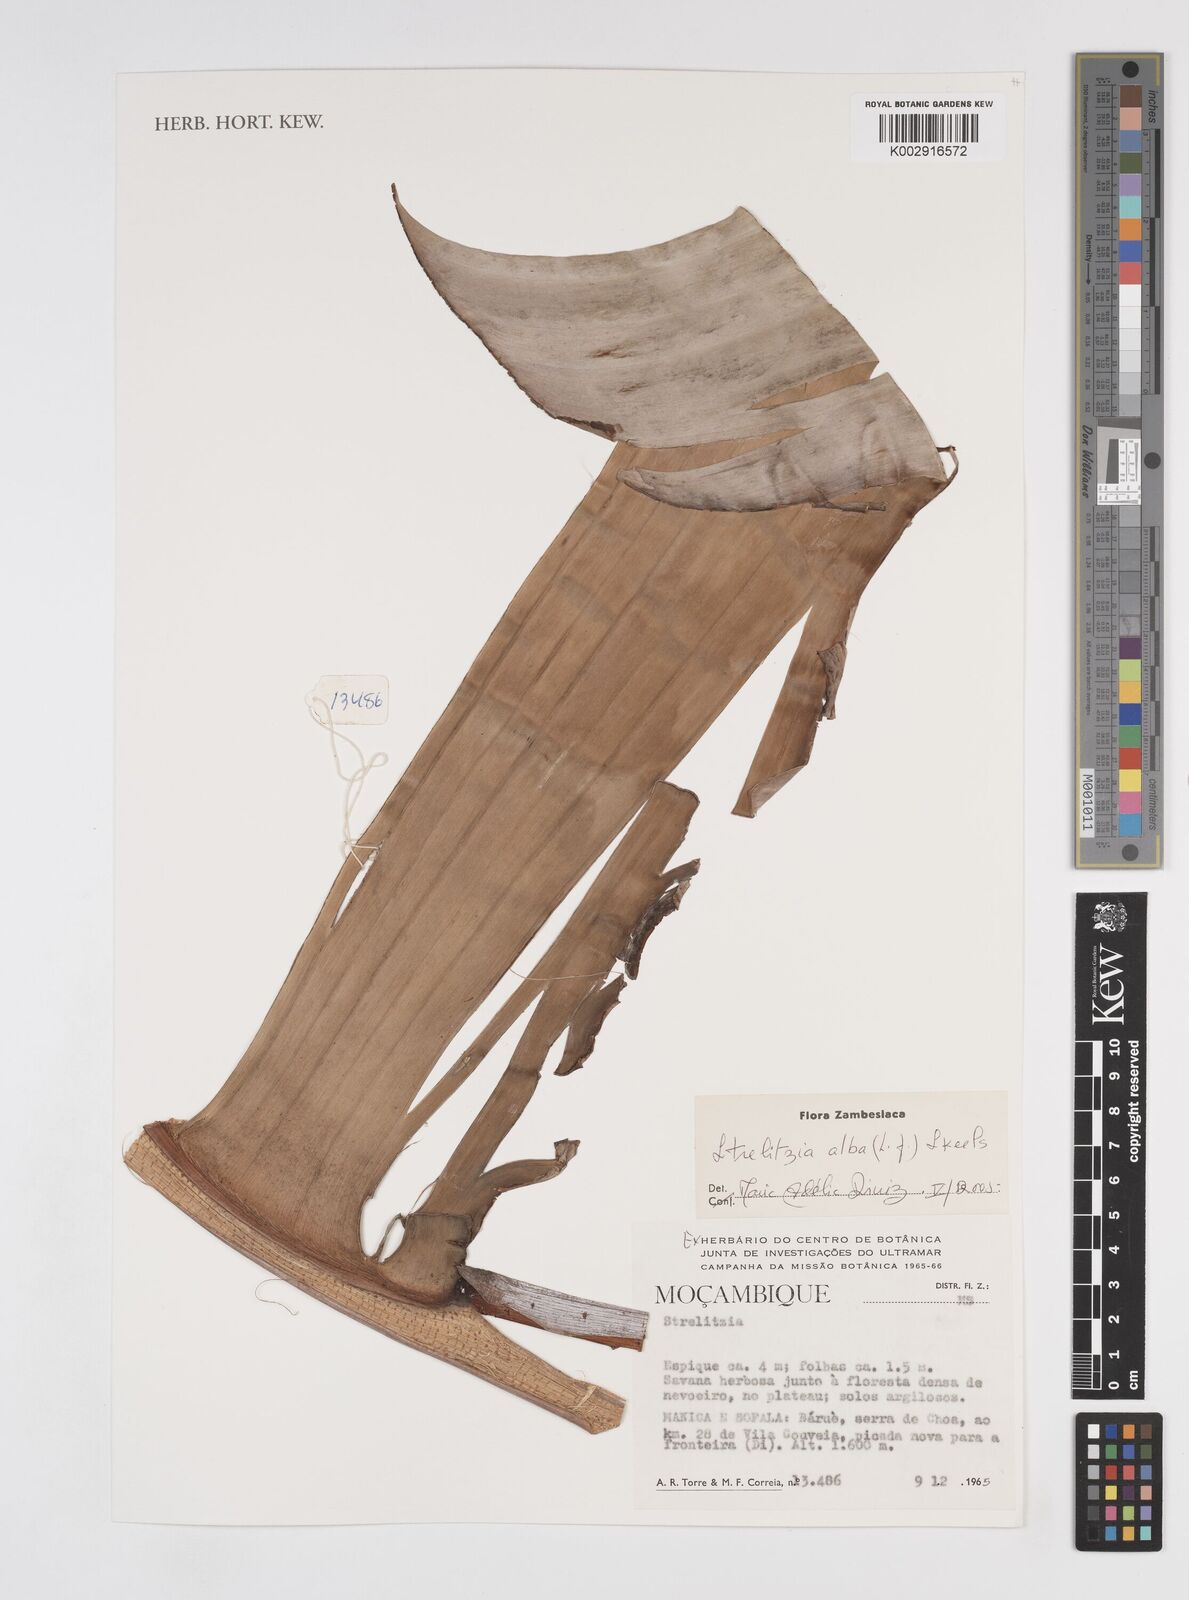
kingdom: Plantae
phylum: Tracheophyta
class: Liliopsida
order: Zingiberales
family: Strelitziaceae
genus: Strelitzia
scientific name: Strelitzia alba
